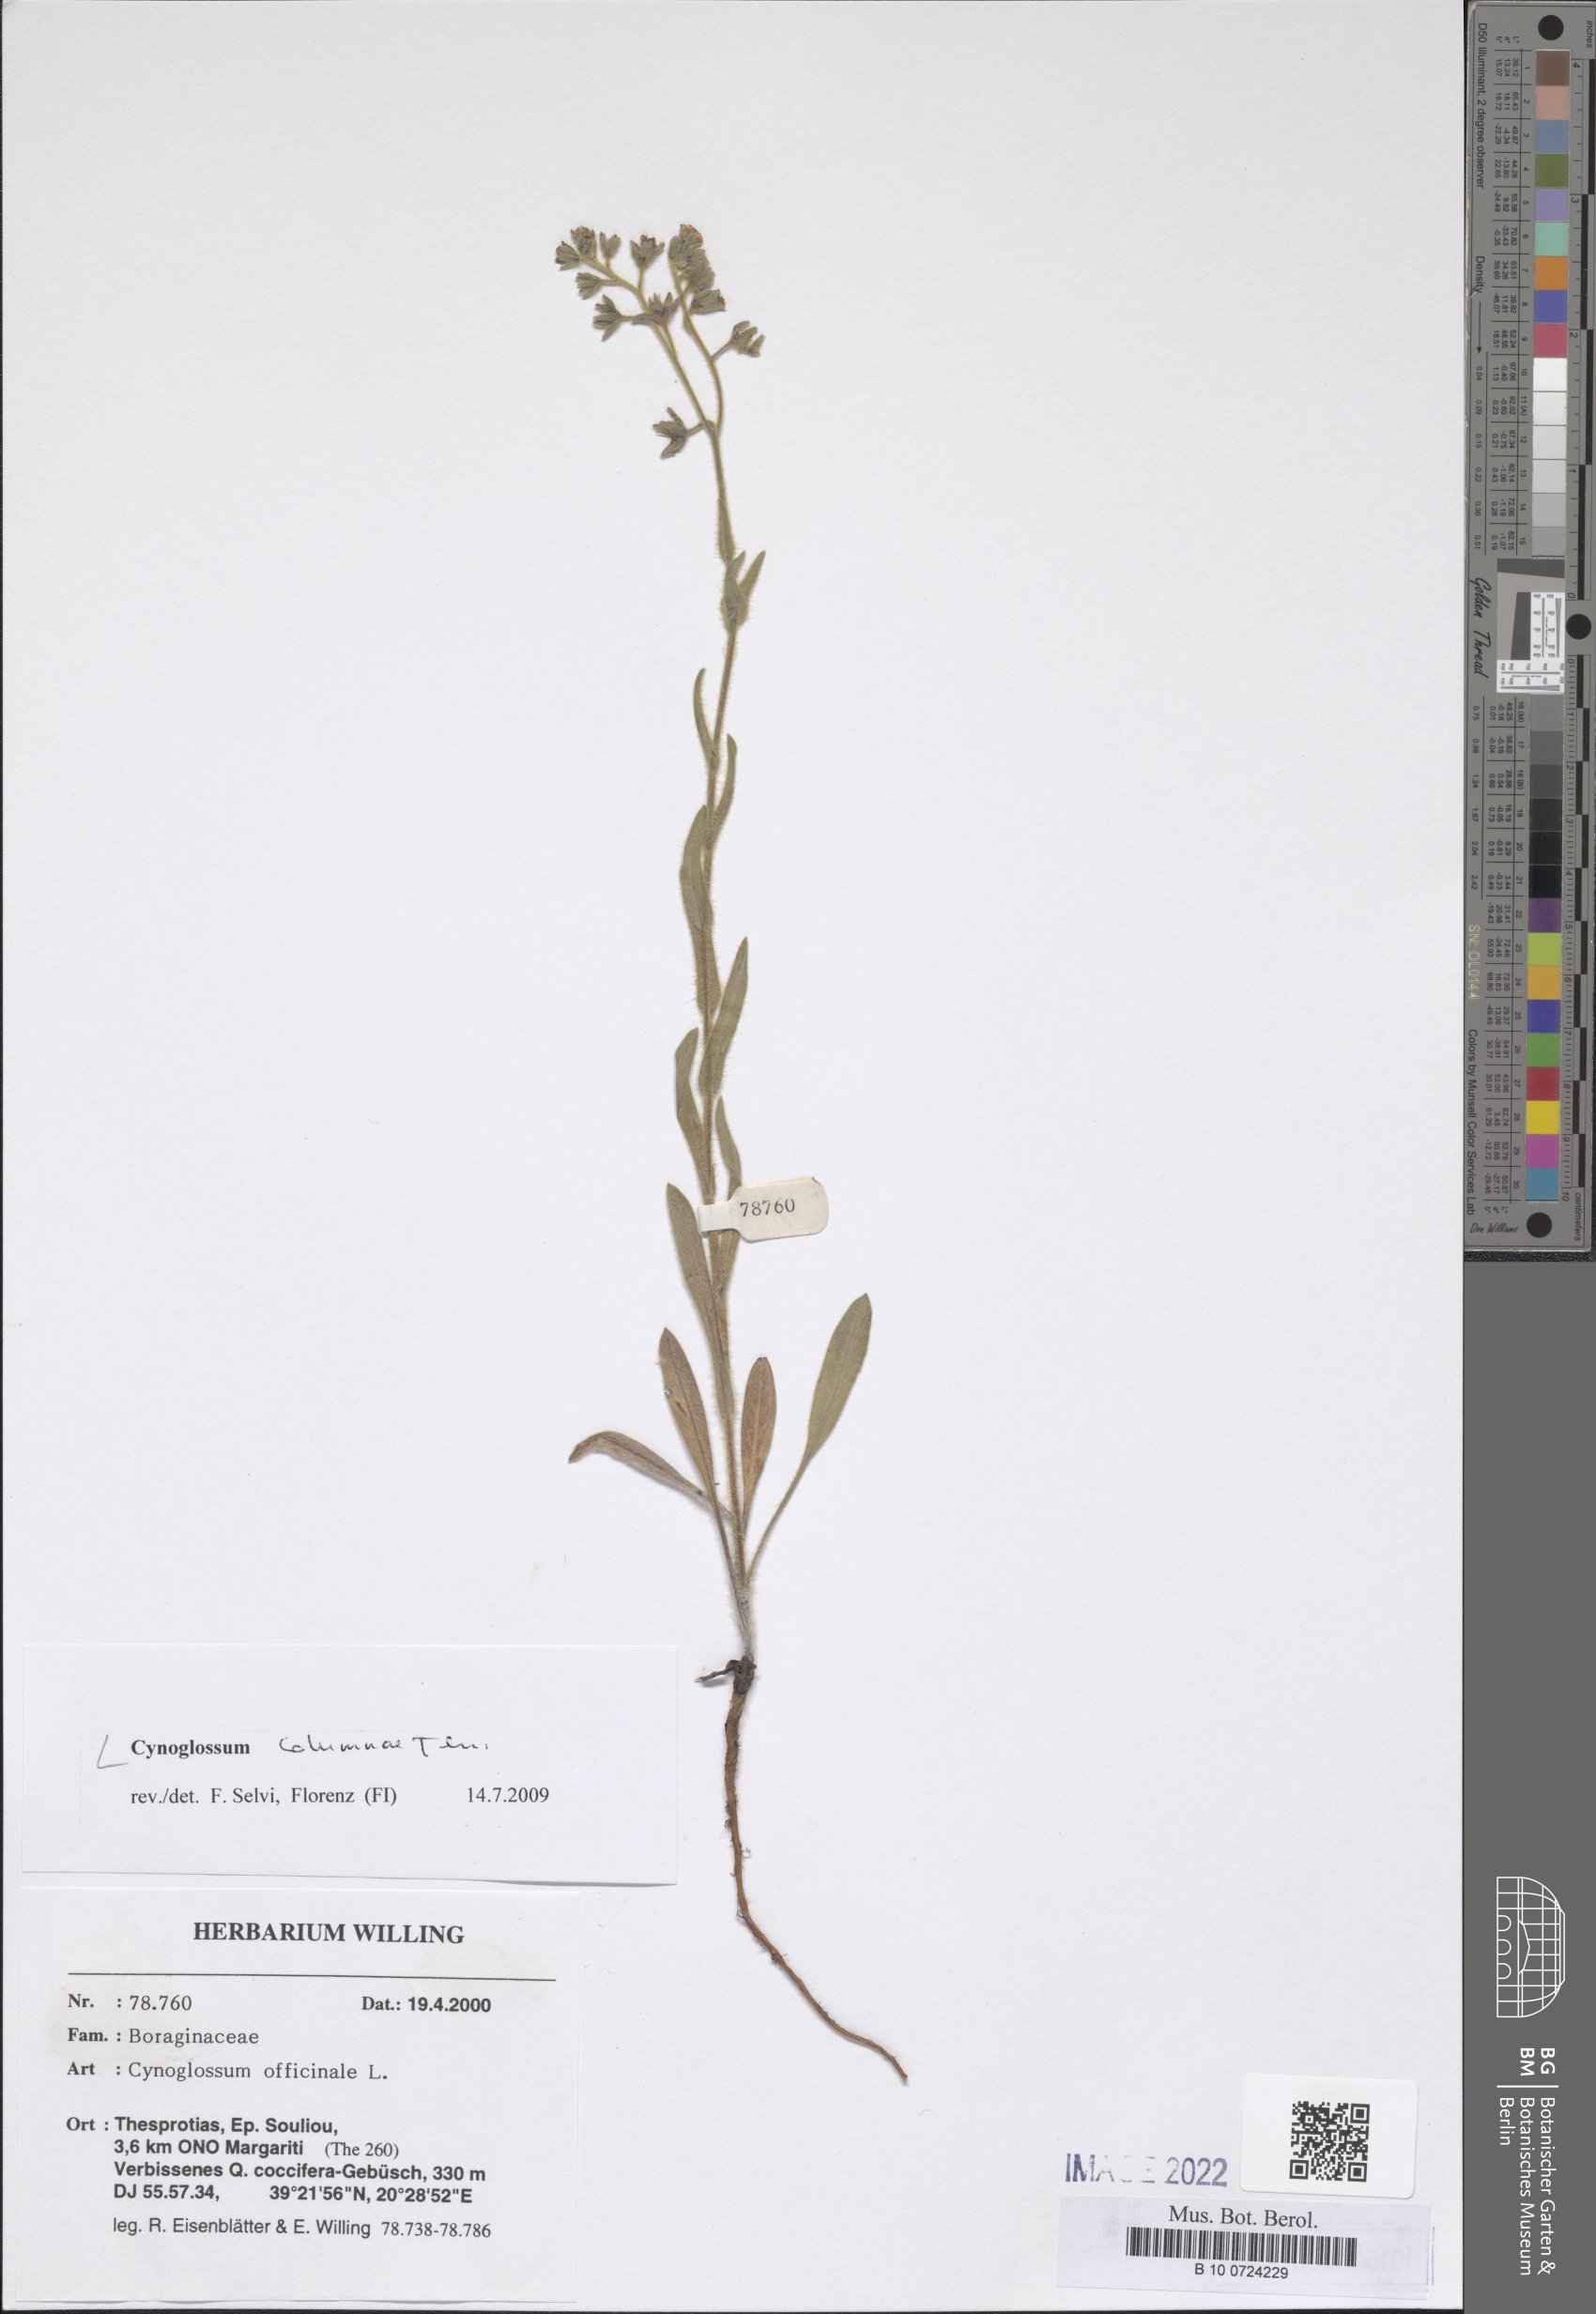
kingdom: Plantae
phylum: Tracheophyta
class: Magnoliopsida
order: Boraginales
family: Boraginaceae
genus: Rindera
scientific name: Rindera columnae
